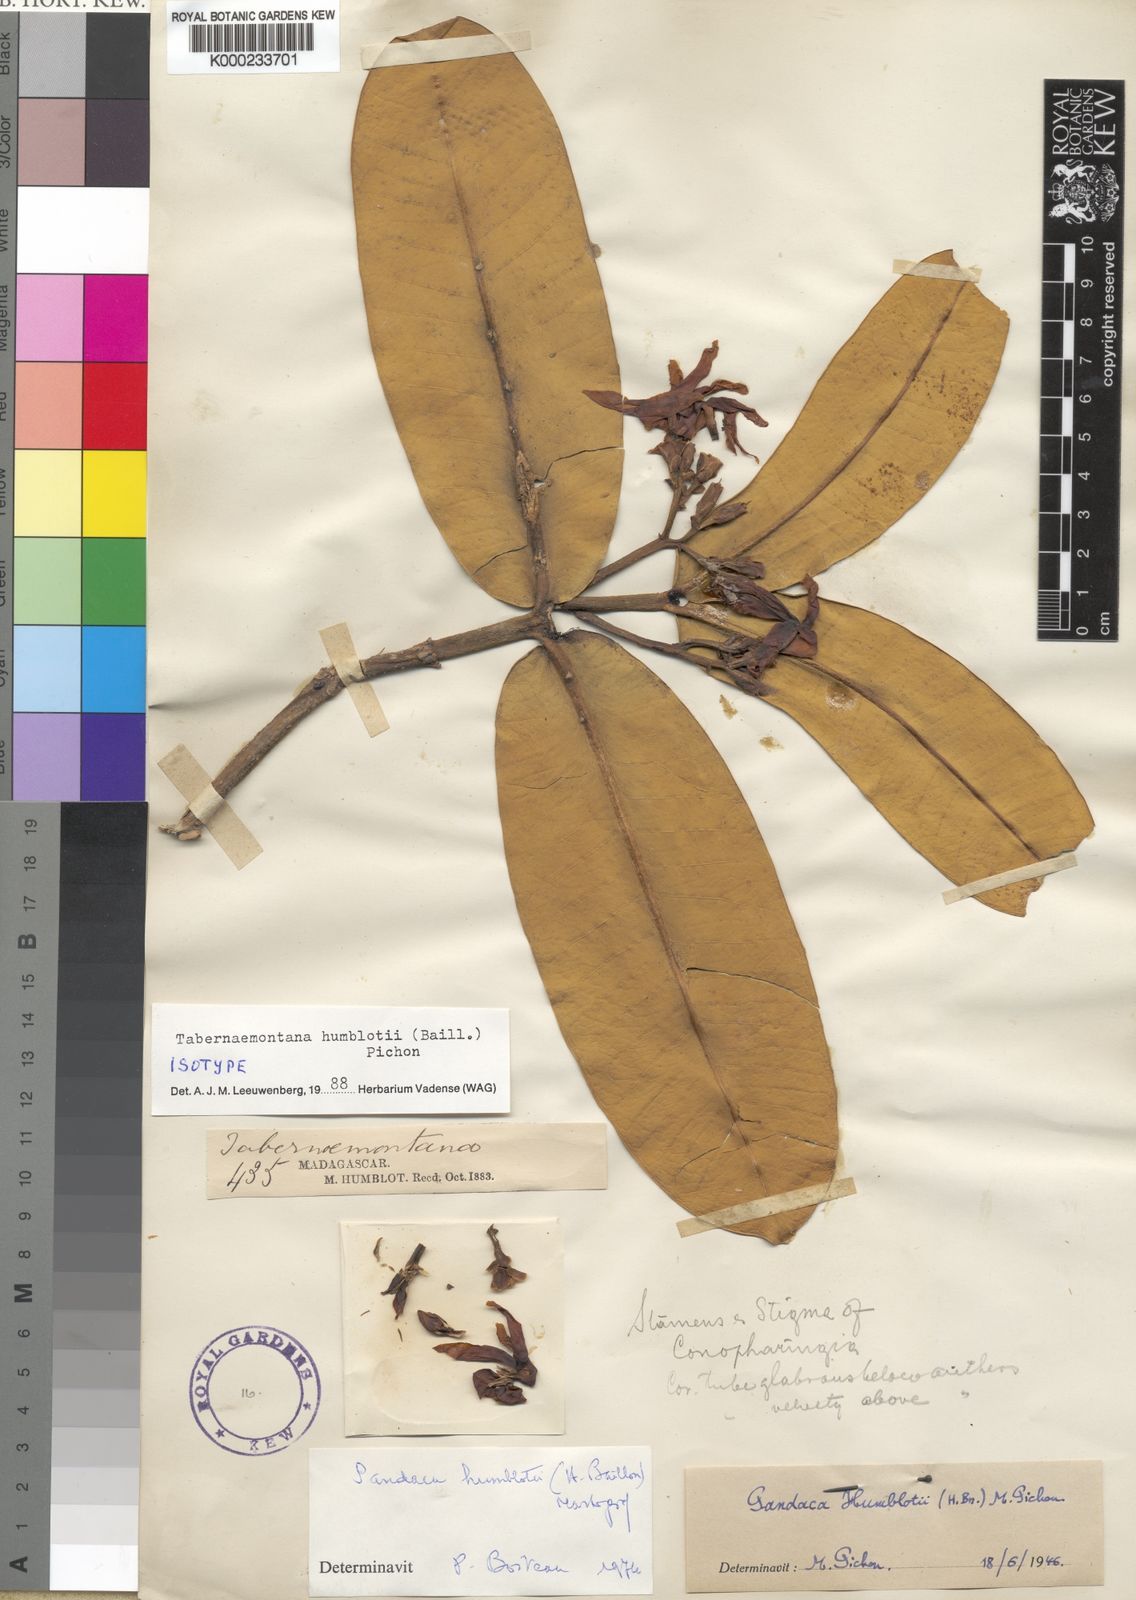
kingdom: Plantae
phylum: Tracheophyta
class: Magnoliopsida
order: Gentianales
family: Apocynaceae
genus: Tabernaemontana
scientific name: Tabernaemontana humblotii
